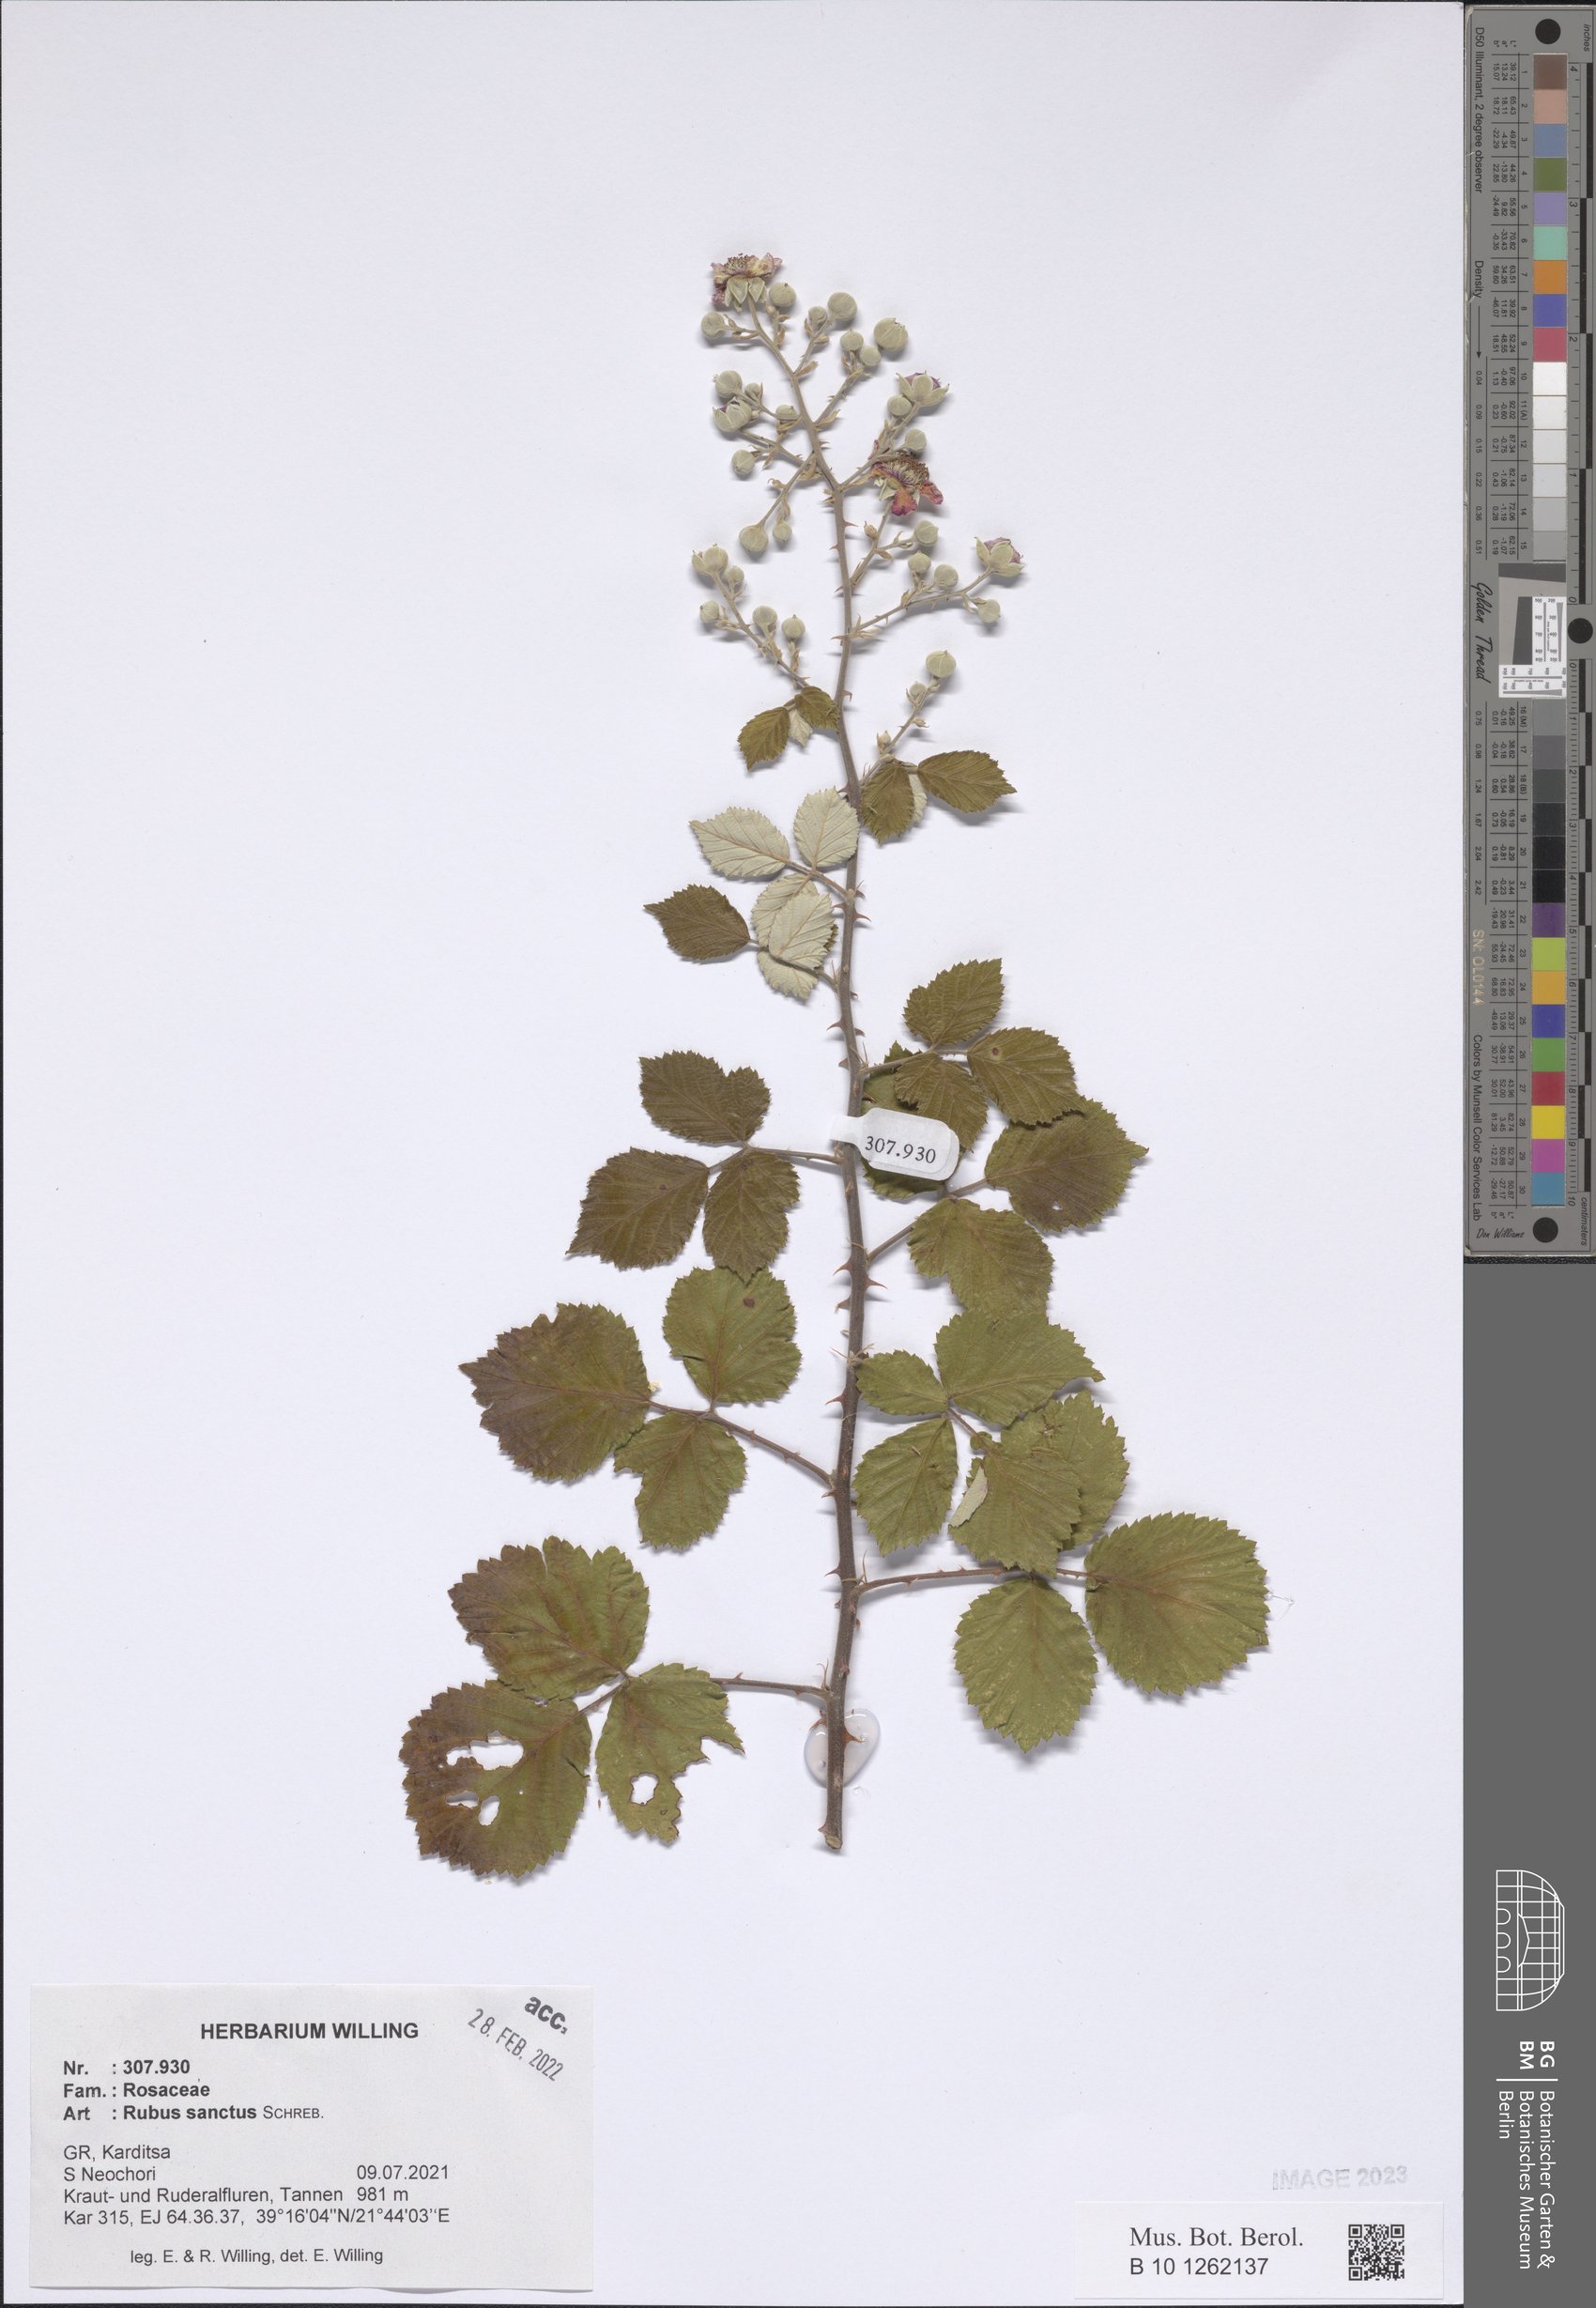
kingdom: Plantae
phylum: Tracheophyta
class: Magnoliopsida
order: Rosales
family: Rosaceae
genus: Rubus
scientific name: Rubus sanctus
